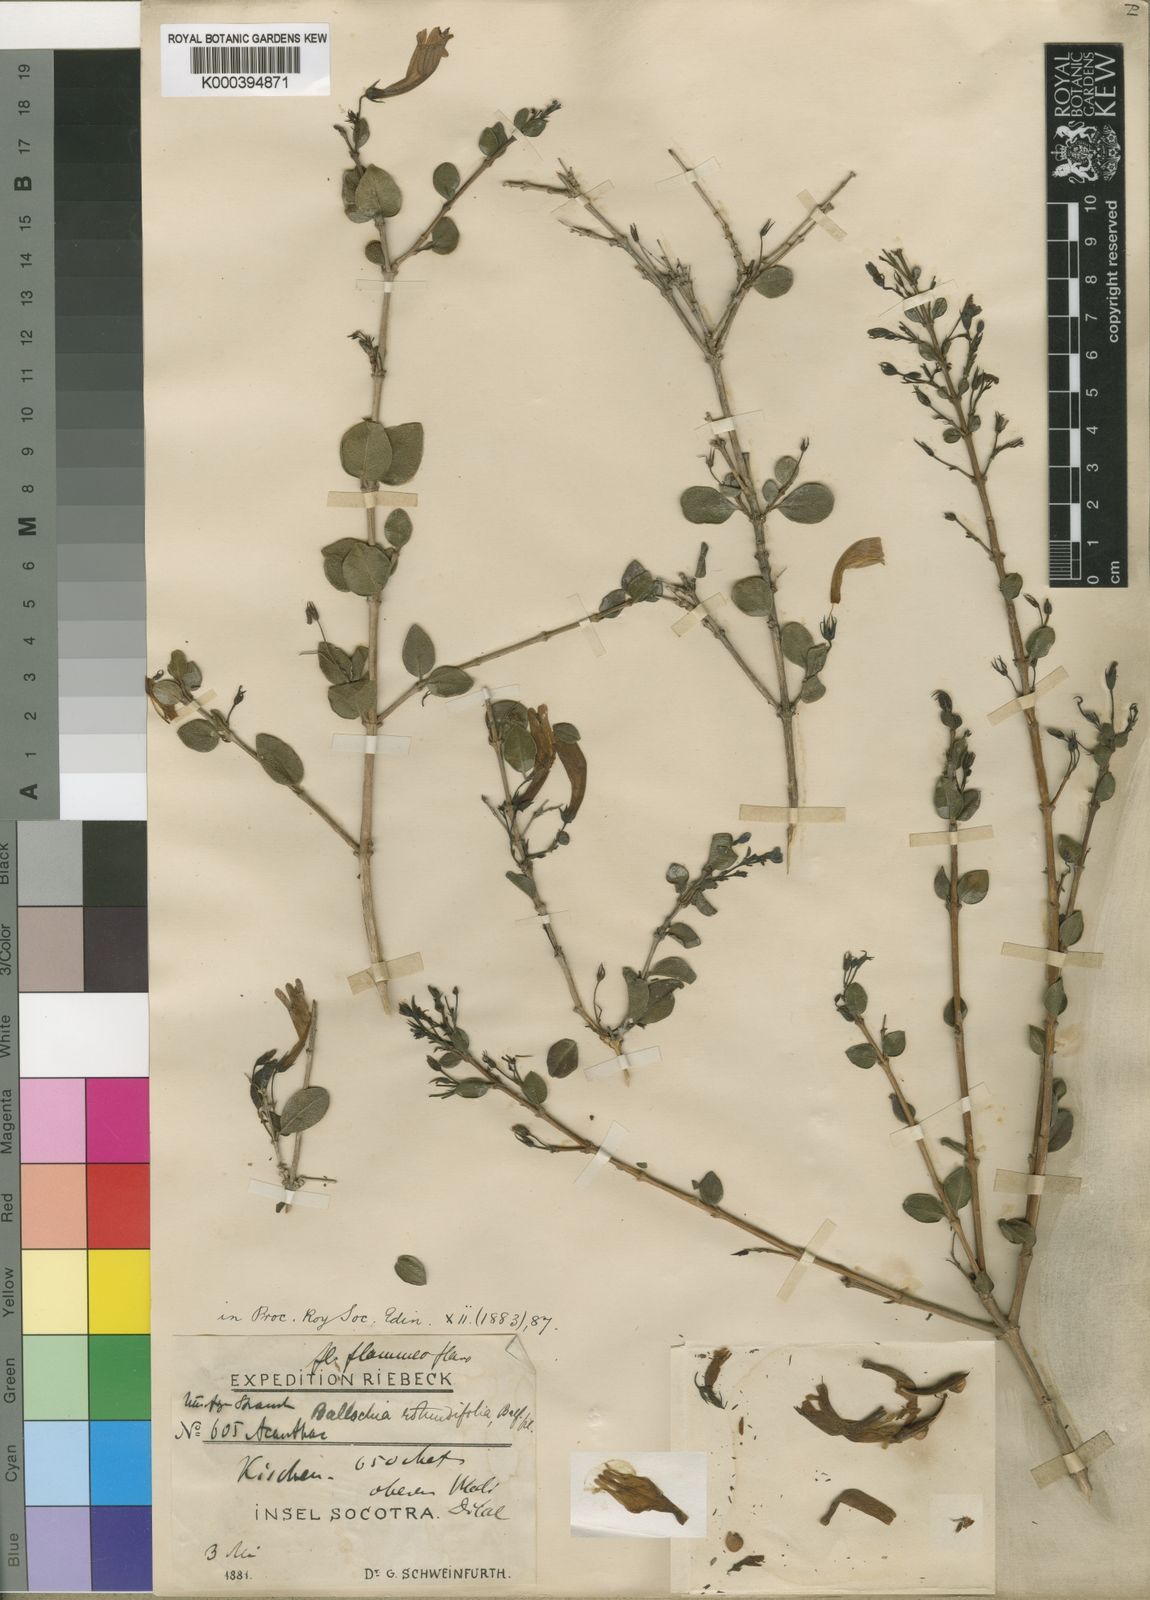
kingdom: Plantae
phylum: Tracheophyta
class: Magnoliopsida
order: Lamiales
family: Acanthaceae
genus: Ballochia
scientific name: Ballochia rotundifolia
